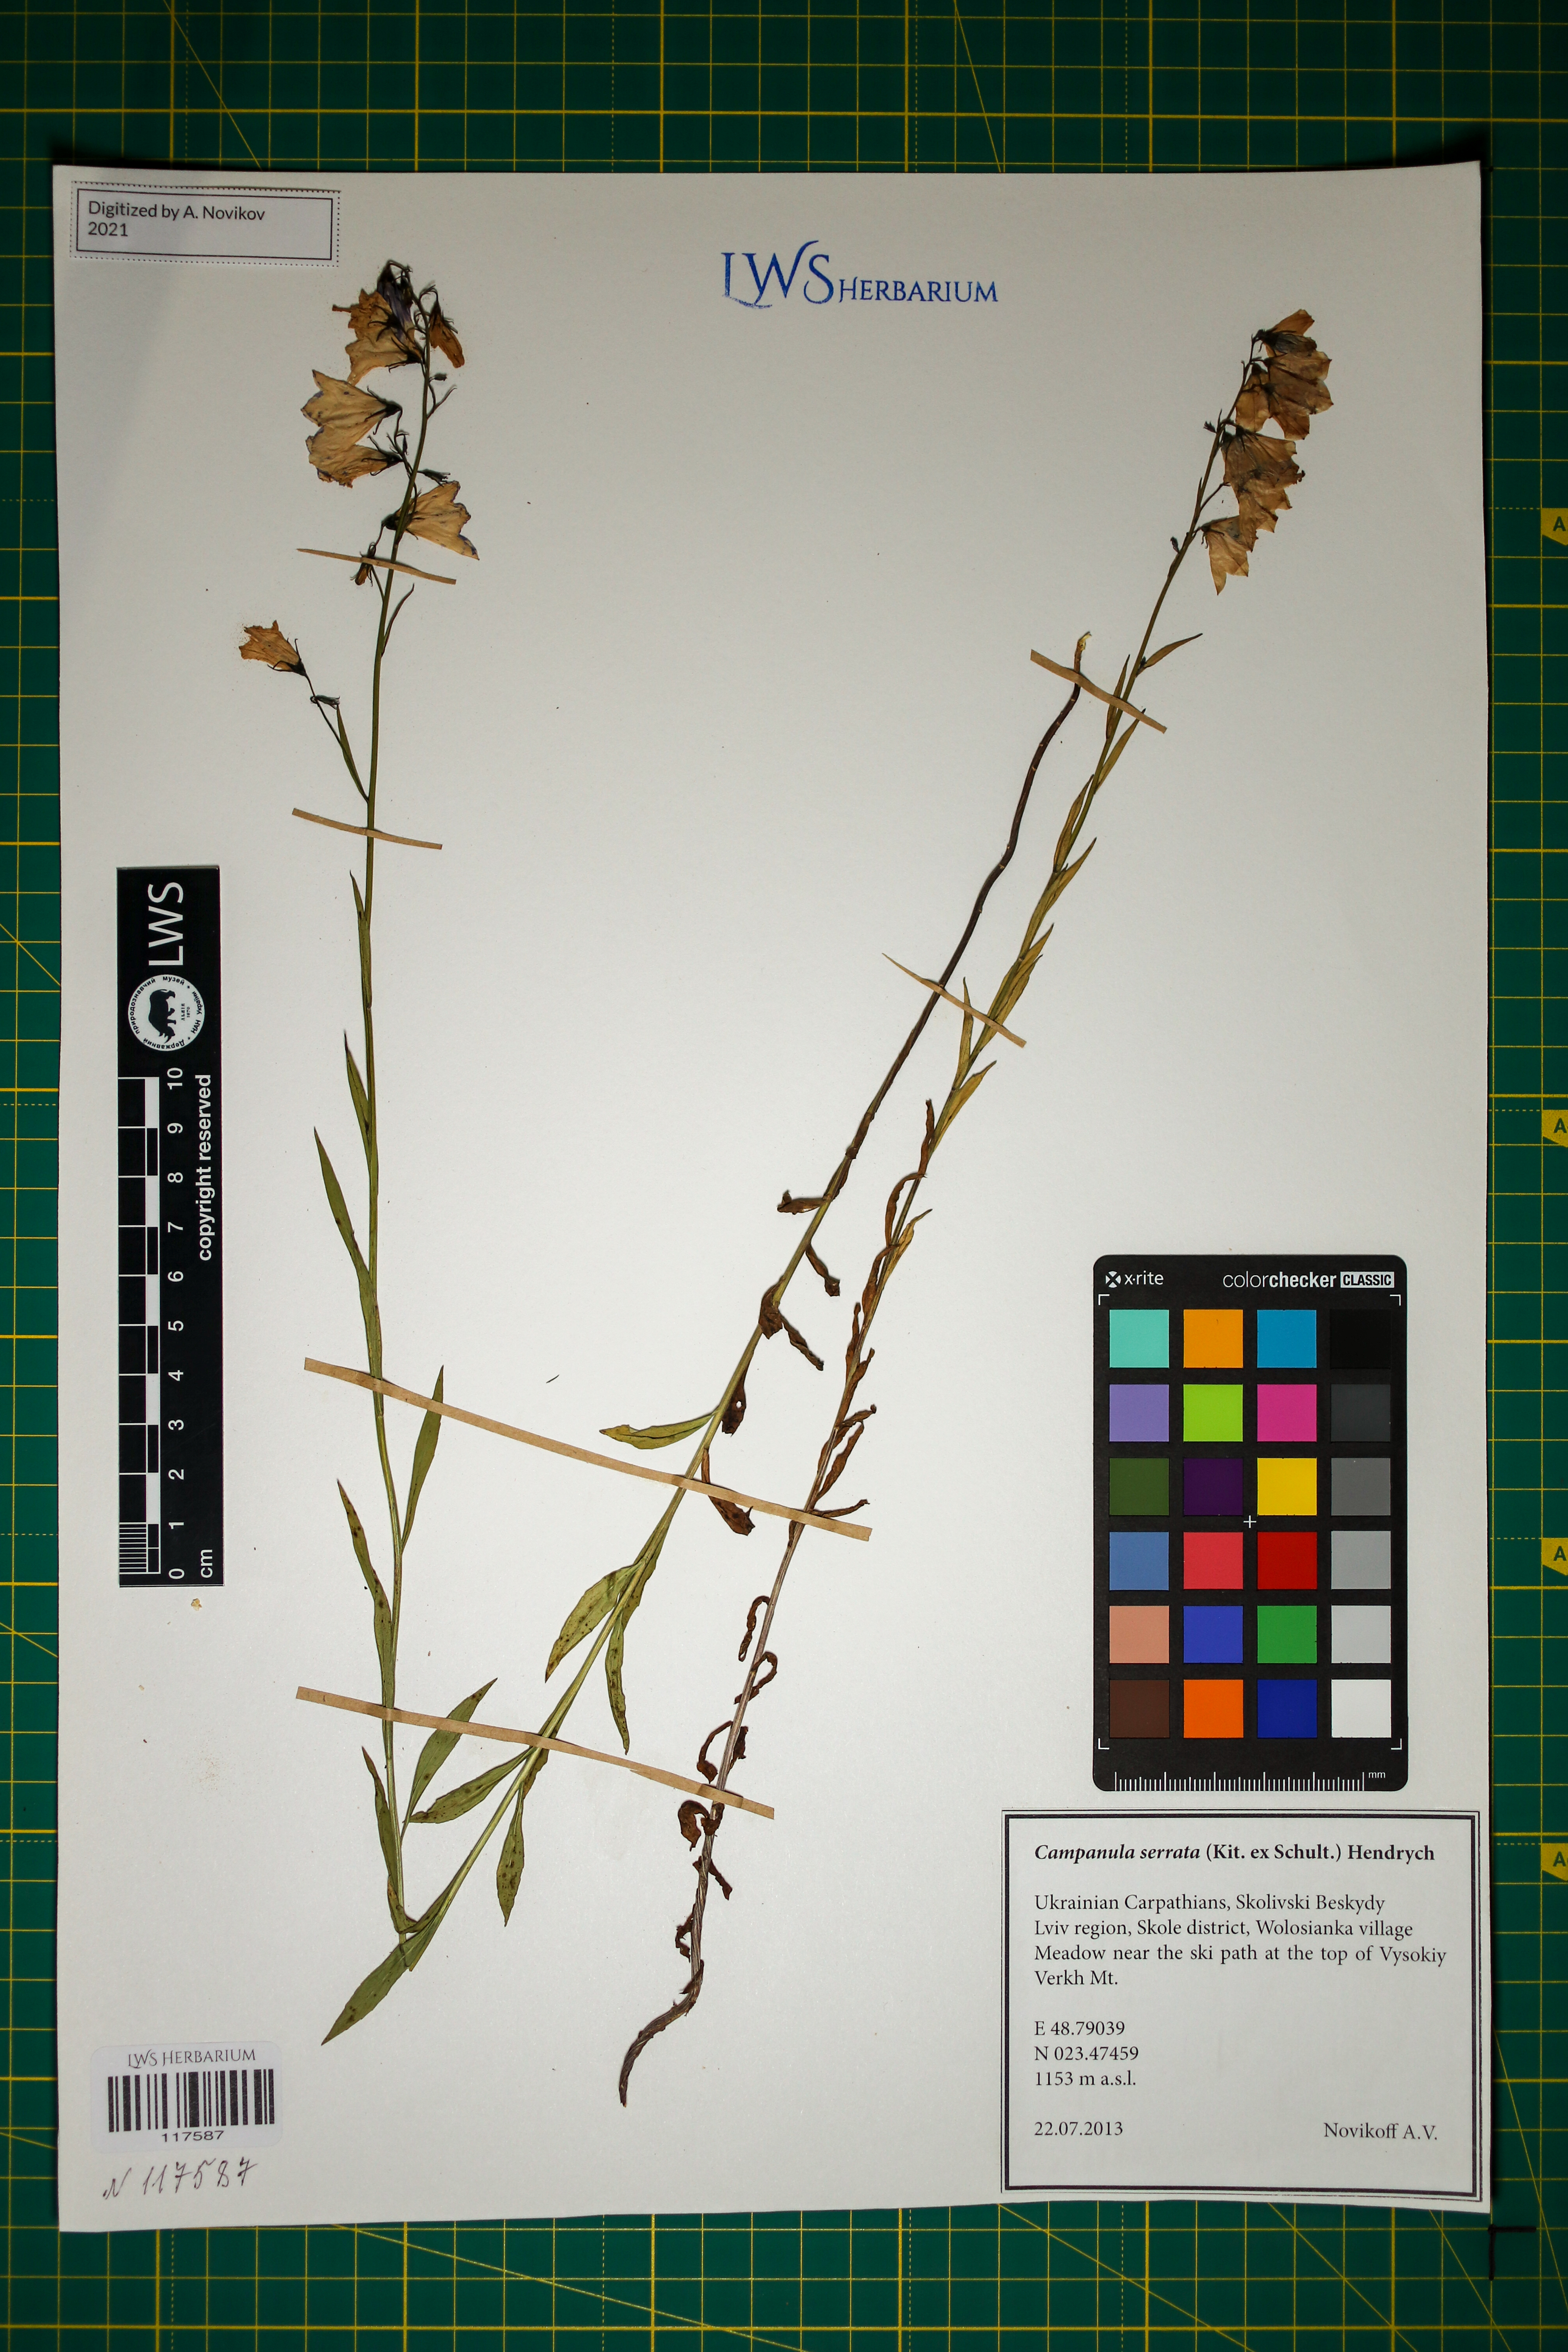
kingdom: Plantae
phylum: Tracheophyta
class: Magnoliopsida
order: Asterales
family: Campanulaceae
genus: Campanula
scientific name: Campanula serrata
